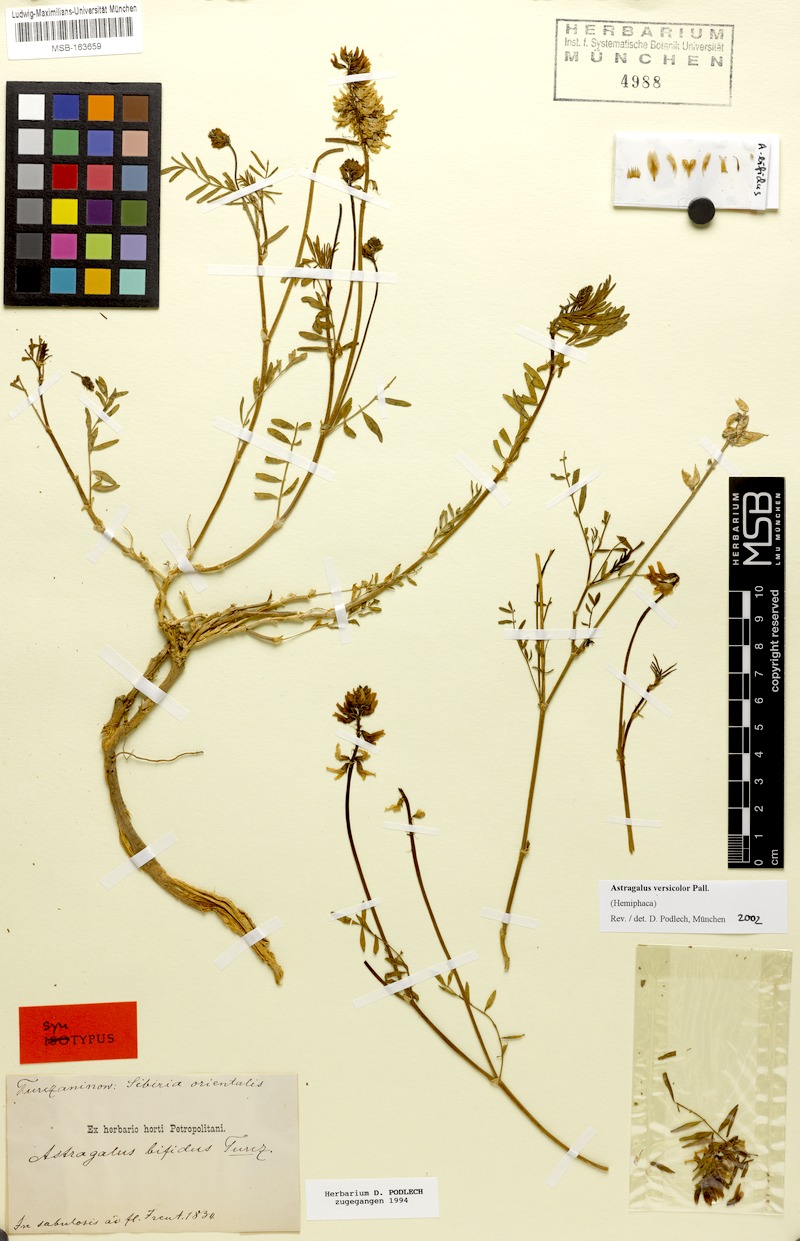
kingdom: Plantae
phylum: Tracheophyta
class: Magnoliopsida
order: Fabales
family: Fabaceae
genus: Astragalus
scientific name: Astragalus versicolor
